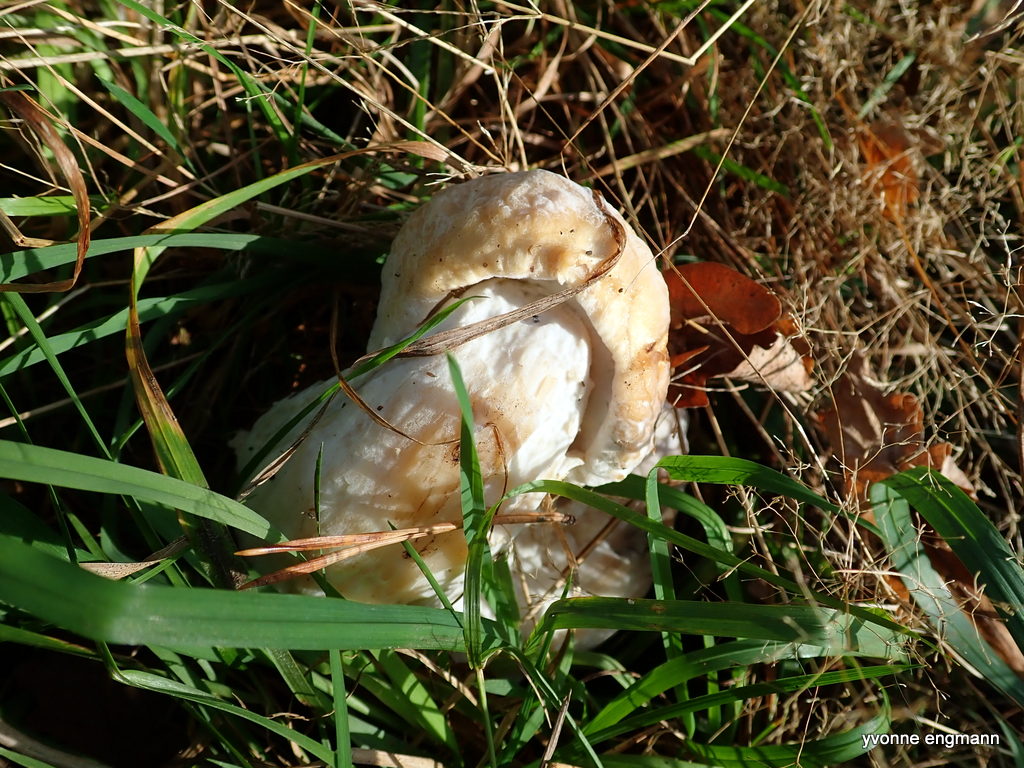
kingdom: Fungi
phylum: Basidiomycota
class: Agaricomycetes
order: Boletales
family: Boletaceae
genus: Boletus
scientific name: Boletus edulis
